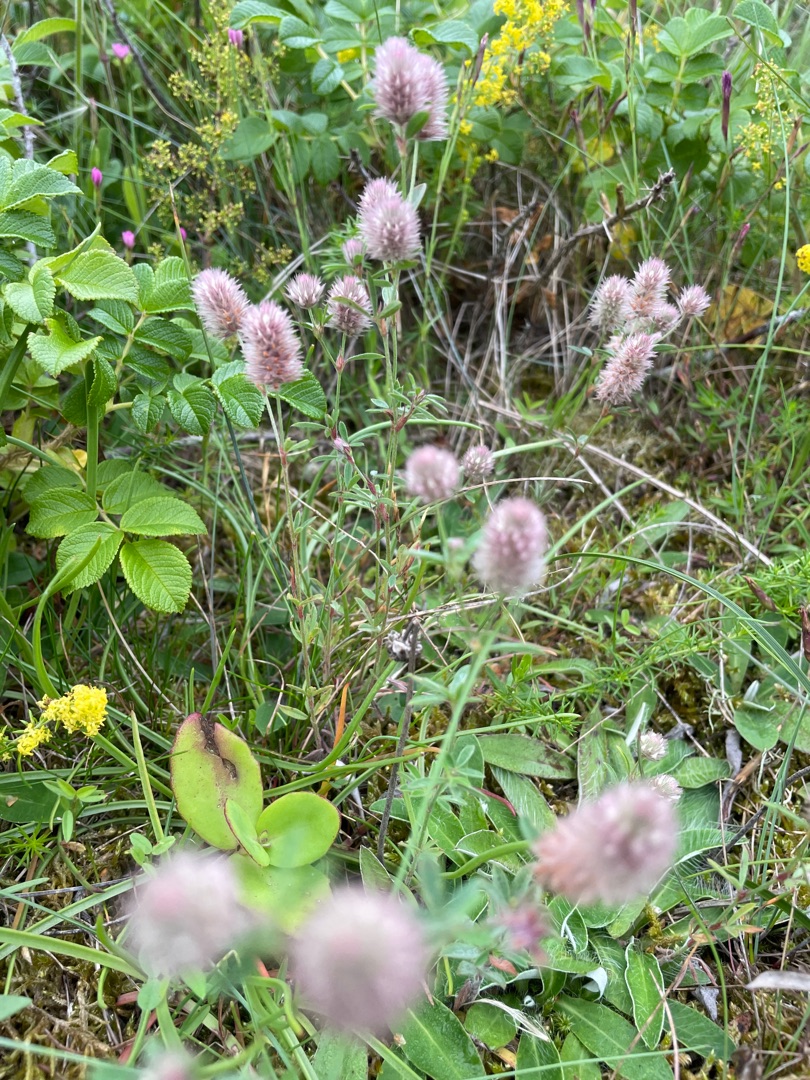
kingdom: Plantae
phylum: Tracheophyta
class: Magnoliopsida
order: Fabales
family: Fabaceae
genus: Trifolium
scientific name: Trifolium arvense
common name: Hare-kløver
